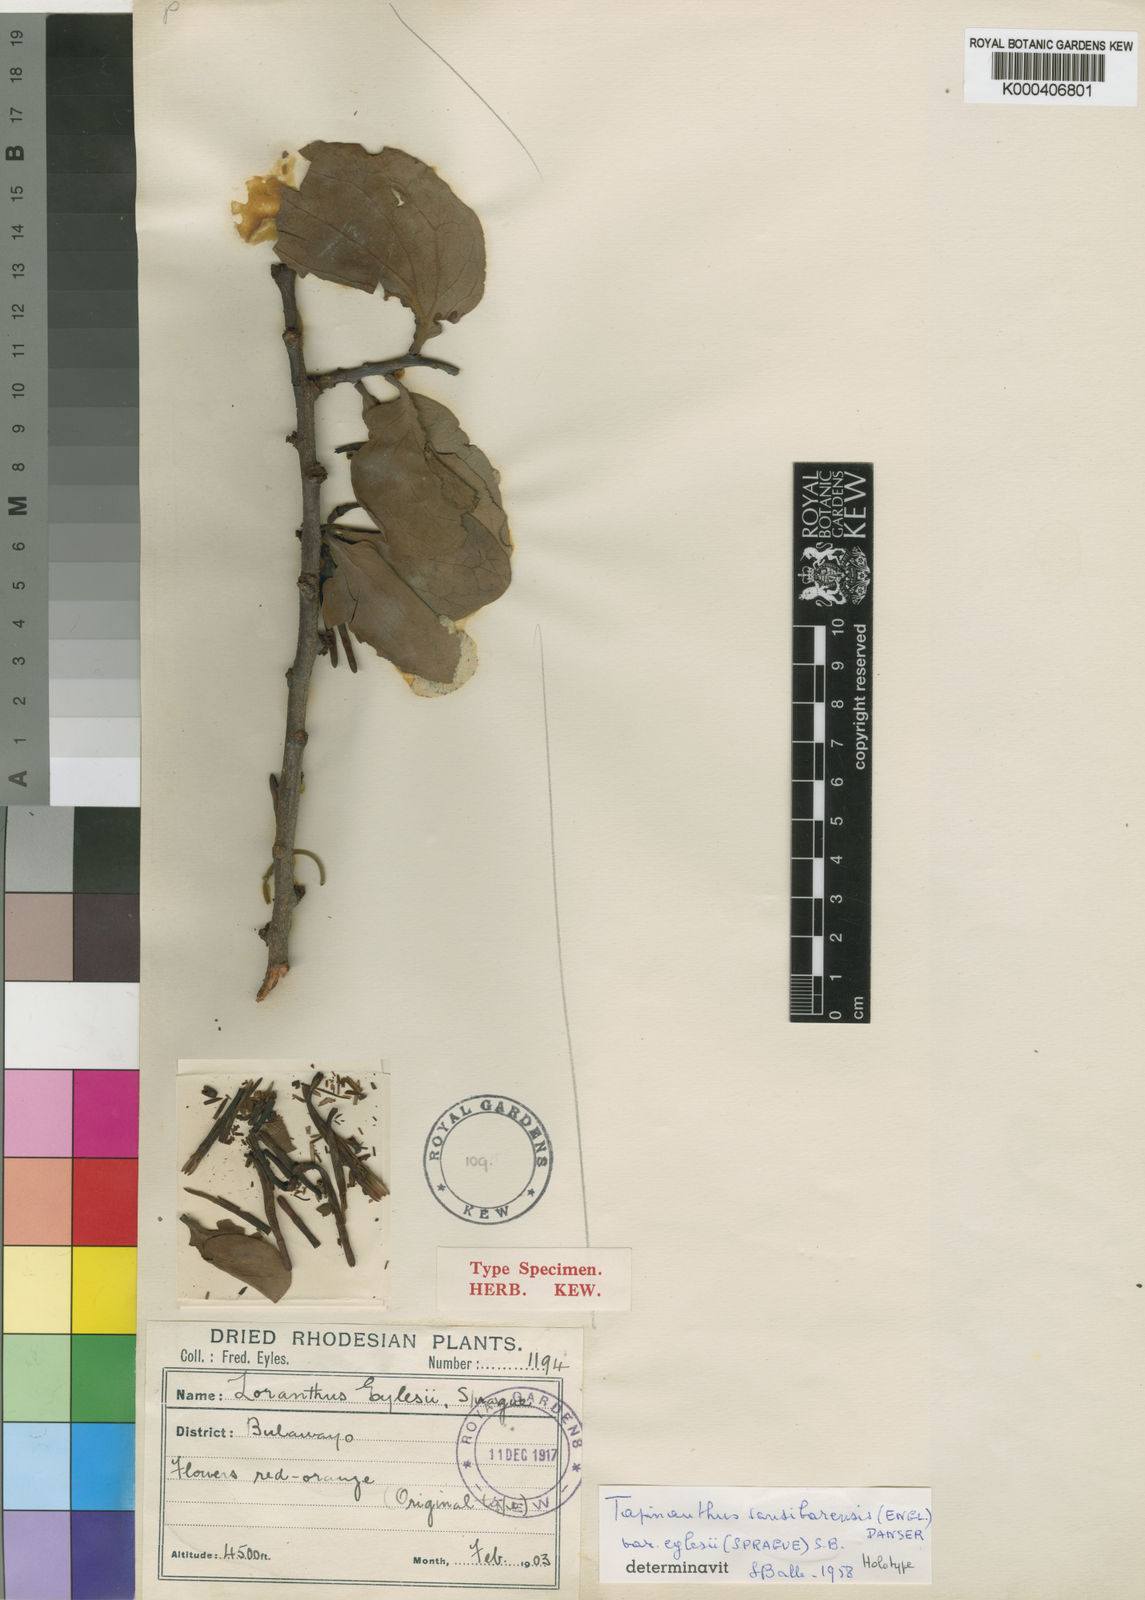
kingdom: Plantae
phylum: Tracheophyta
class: Magnoliopsida
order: Santalales
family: Loranthaceae
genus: Agelanthus
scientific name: Agelanthus fuellebornii
